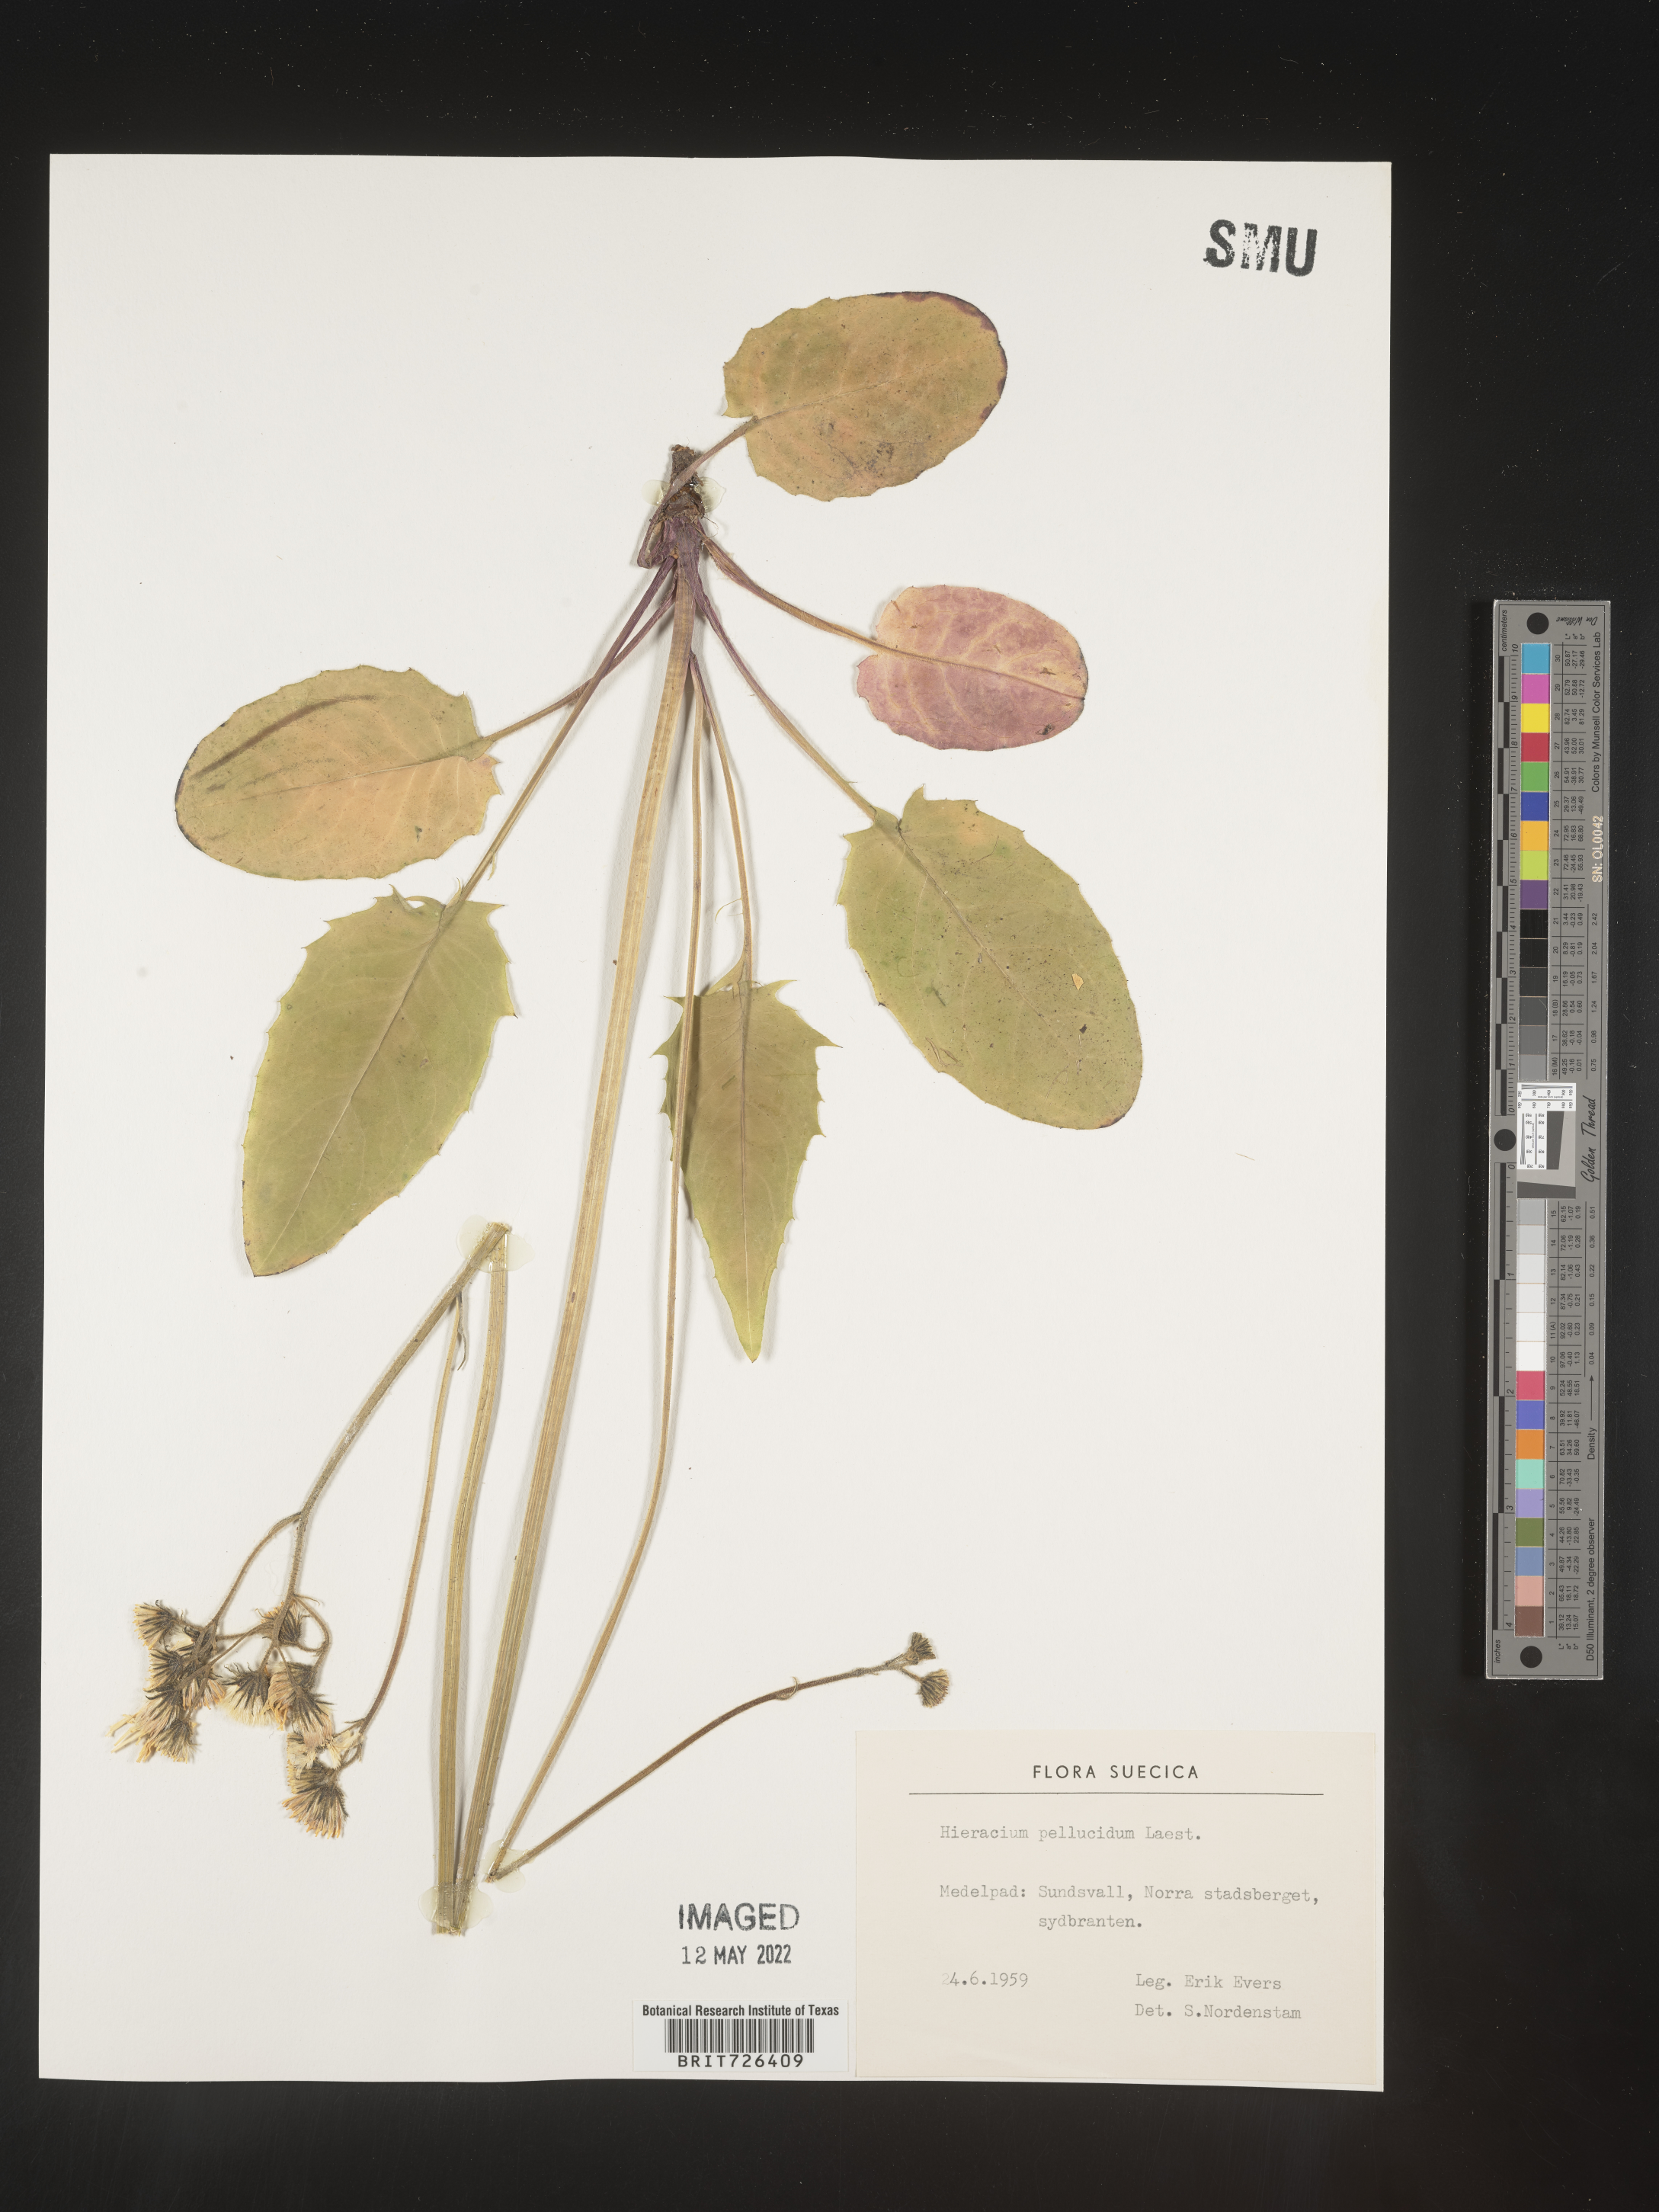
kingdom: Plantae
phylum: Tracheophyta
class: Magnoliopsida
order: Asterales
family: Asteraceae
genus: Hieracium
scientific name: Hieracium
